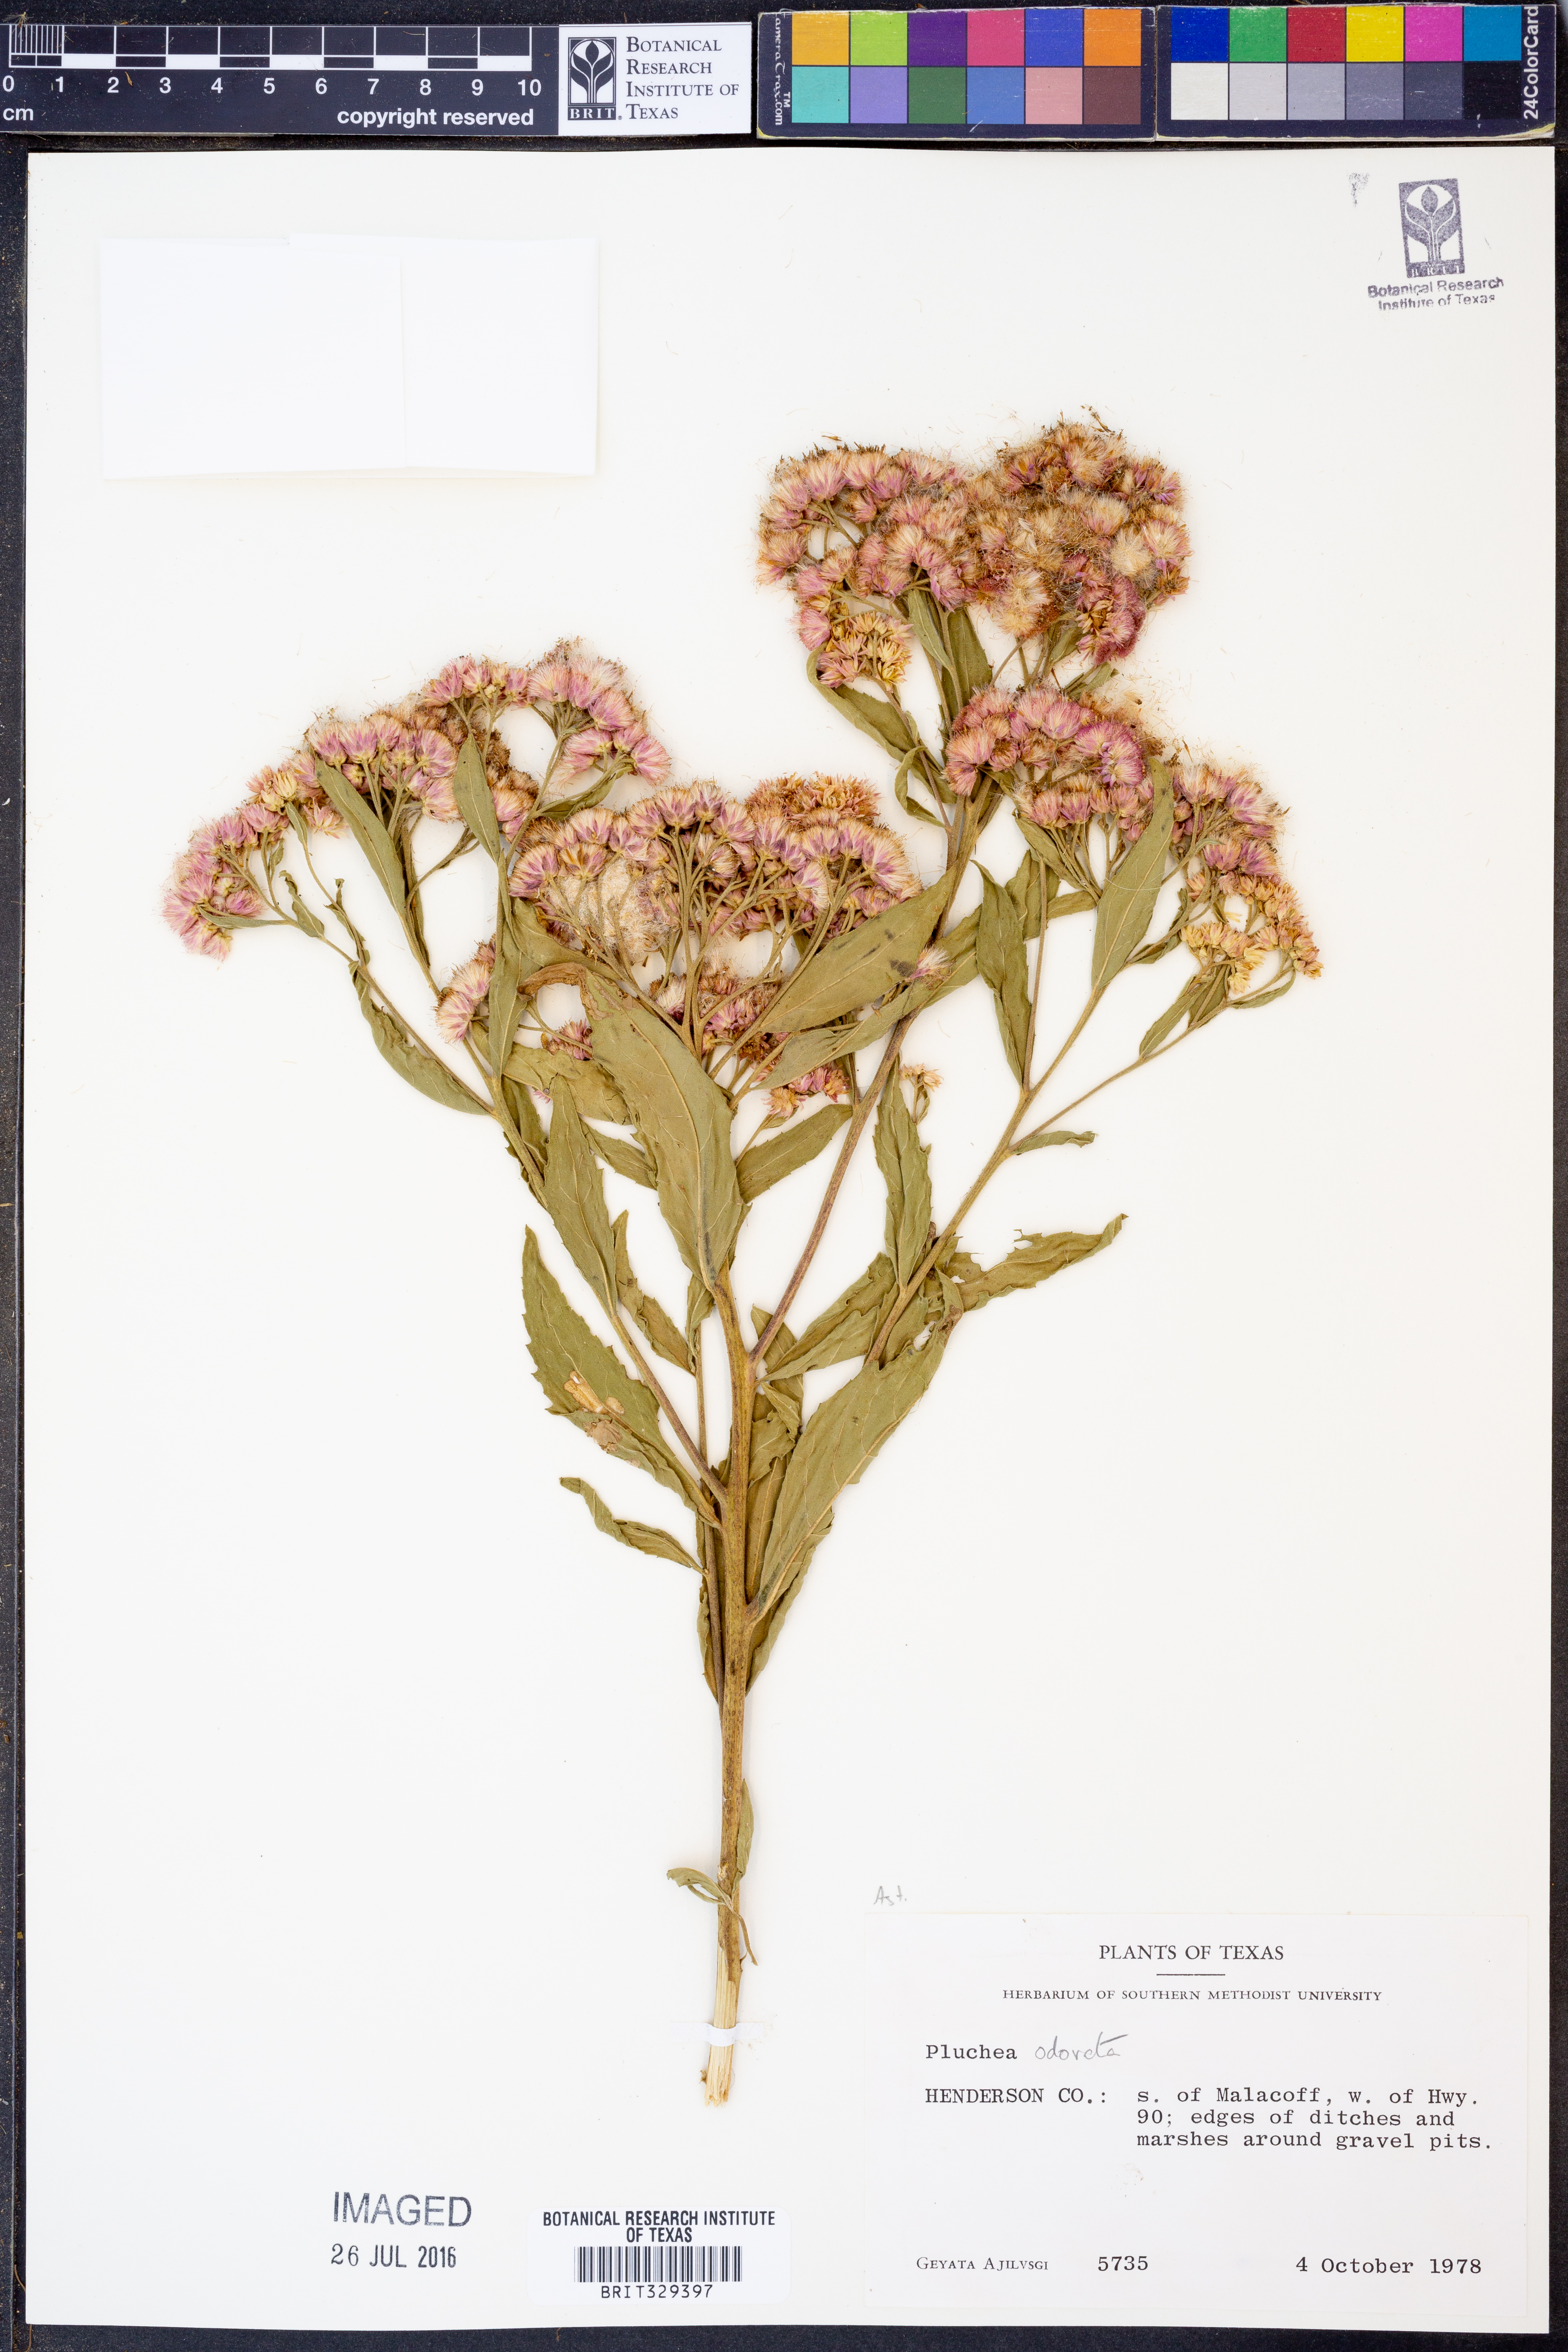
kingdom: Plantae
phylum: Tracheophyta
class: Magnoliopsida
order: Asterales
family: Asteraceae
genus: Pluchea
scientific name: Pluchea odorata
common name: Saltmarsh fleabane
